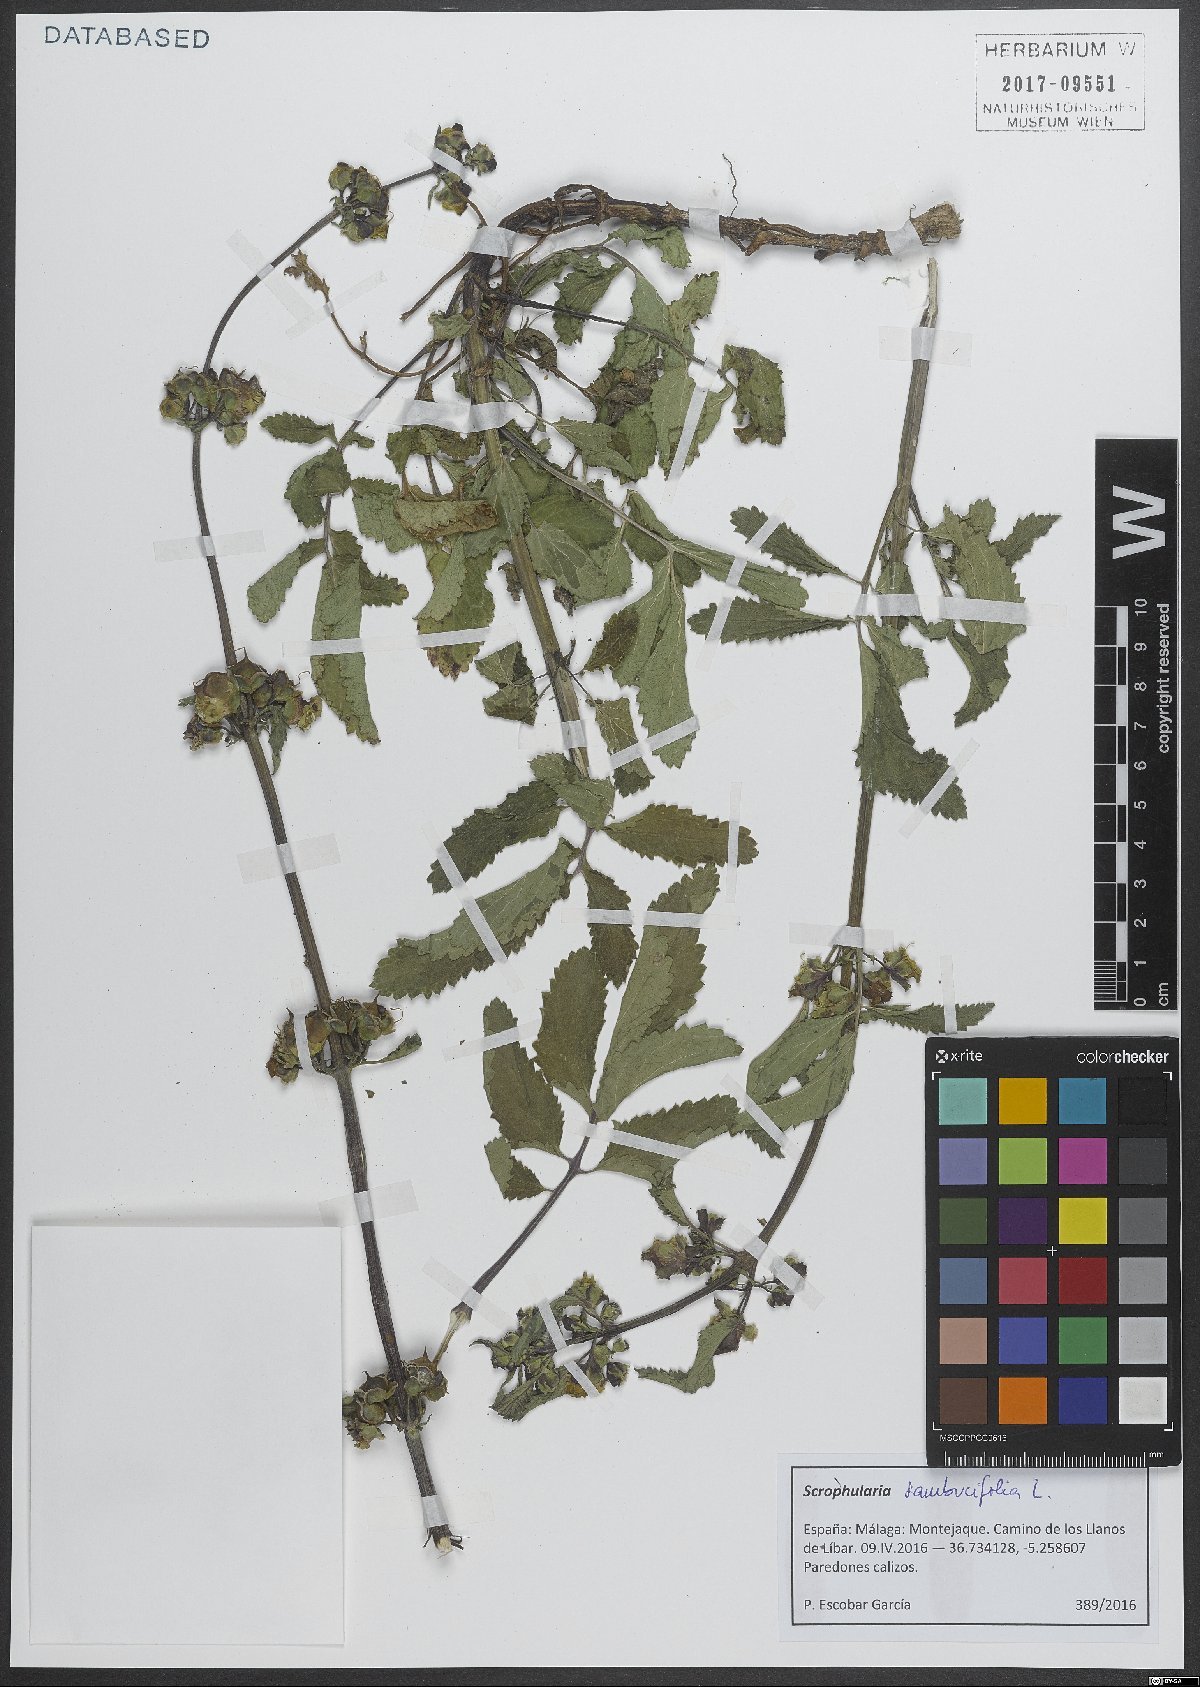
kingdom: Plantae
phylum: Tracheophyta
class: Magnoliopsida
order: Lamiales
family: Scrophulariaceae
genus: Scrophularia
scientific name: Scrophularia sambucifolia
